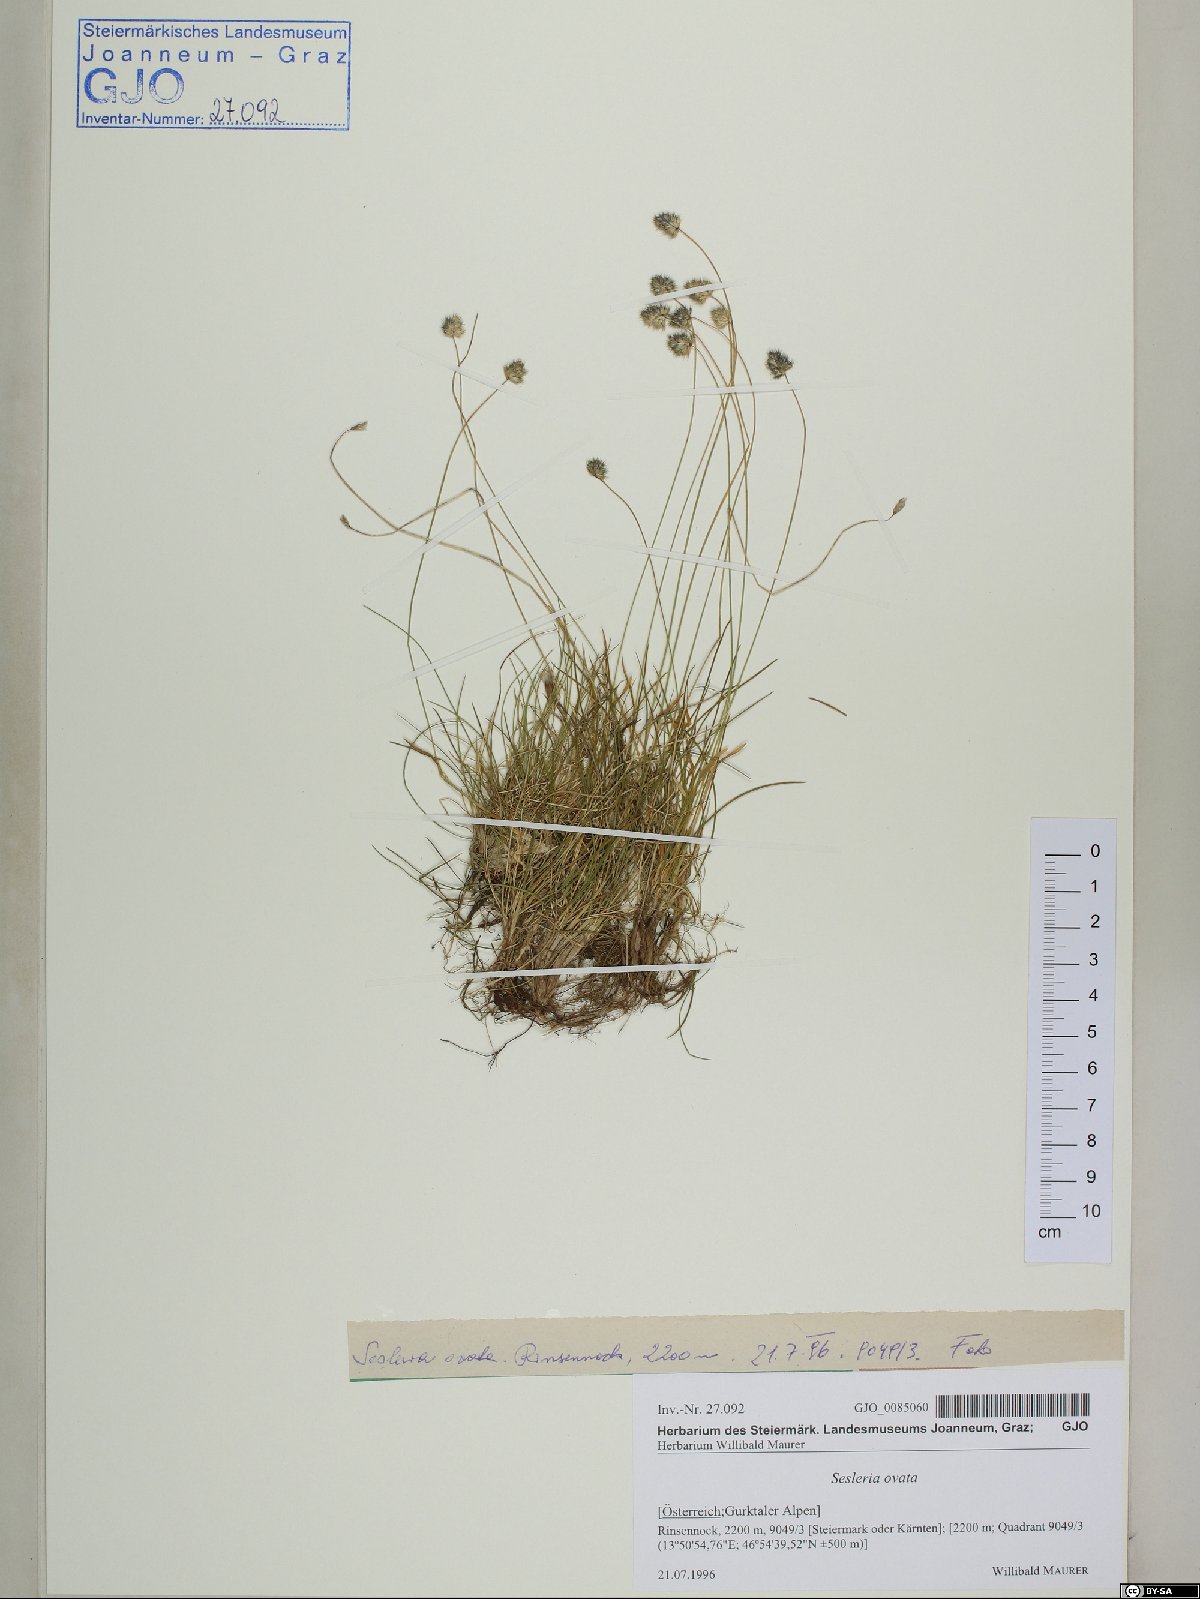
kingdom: Plantae
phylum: Tracheophyta
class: Liliopsida
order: Poales
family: Poaceae
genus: Psilathera
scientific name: Psilathera ovata
